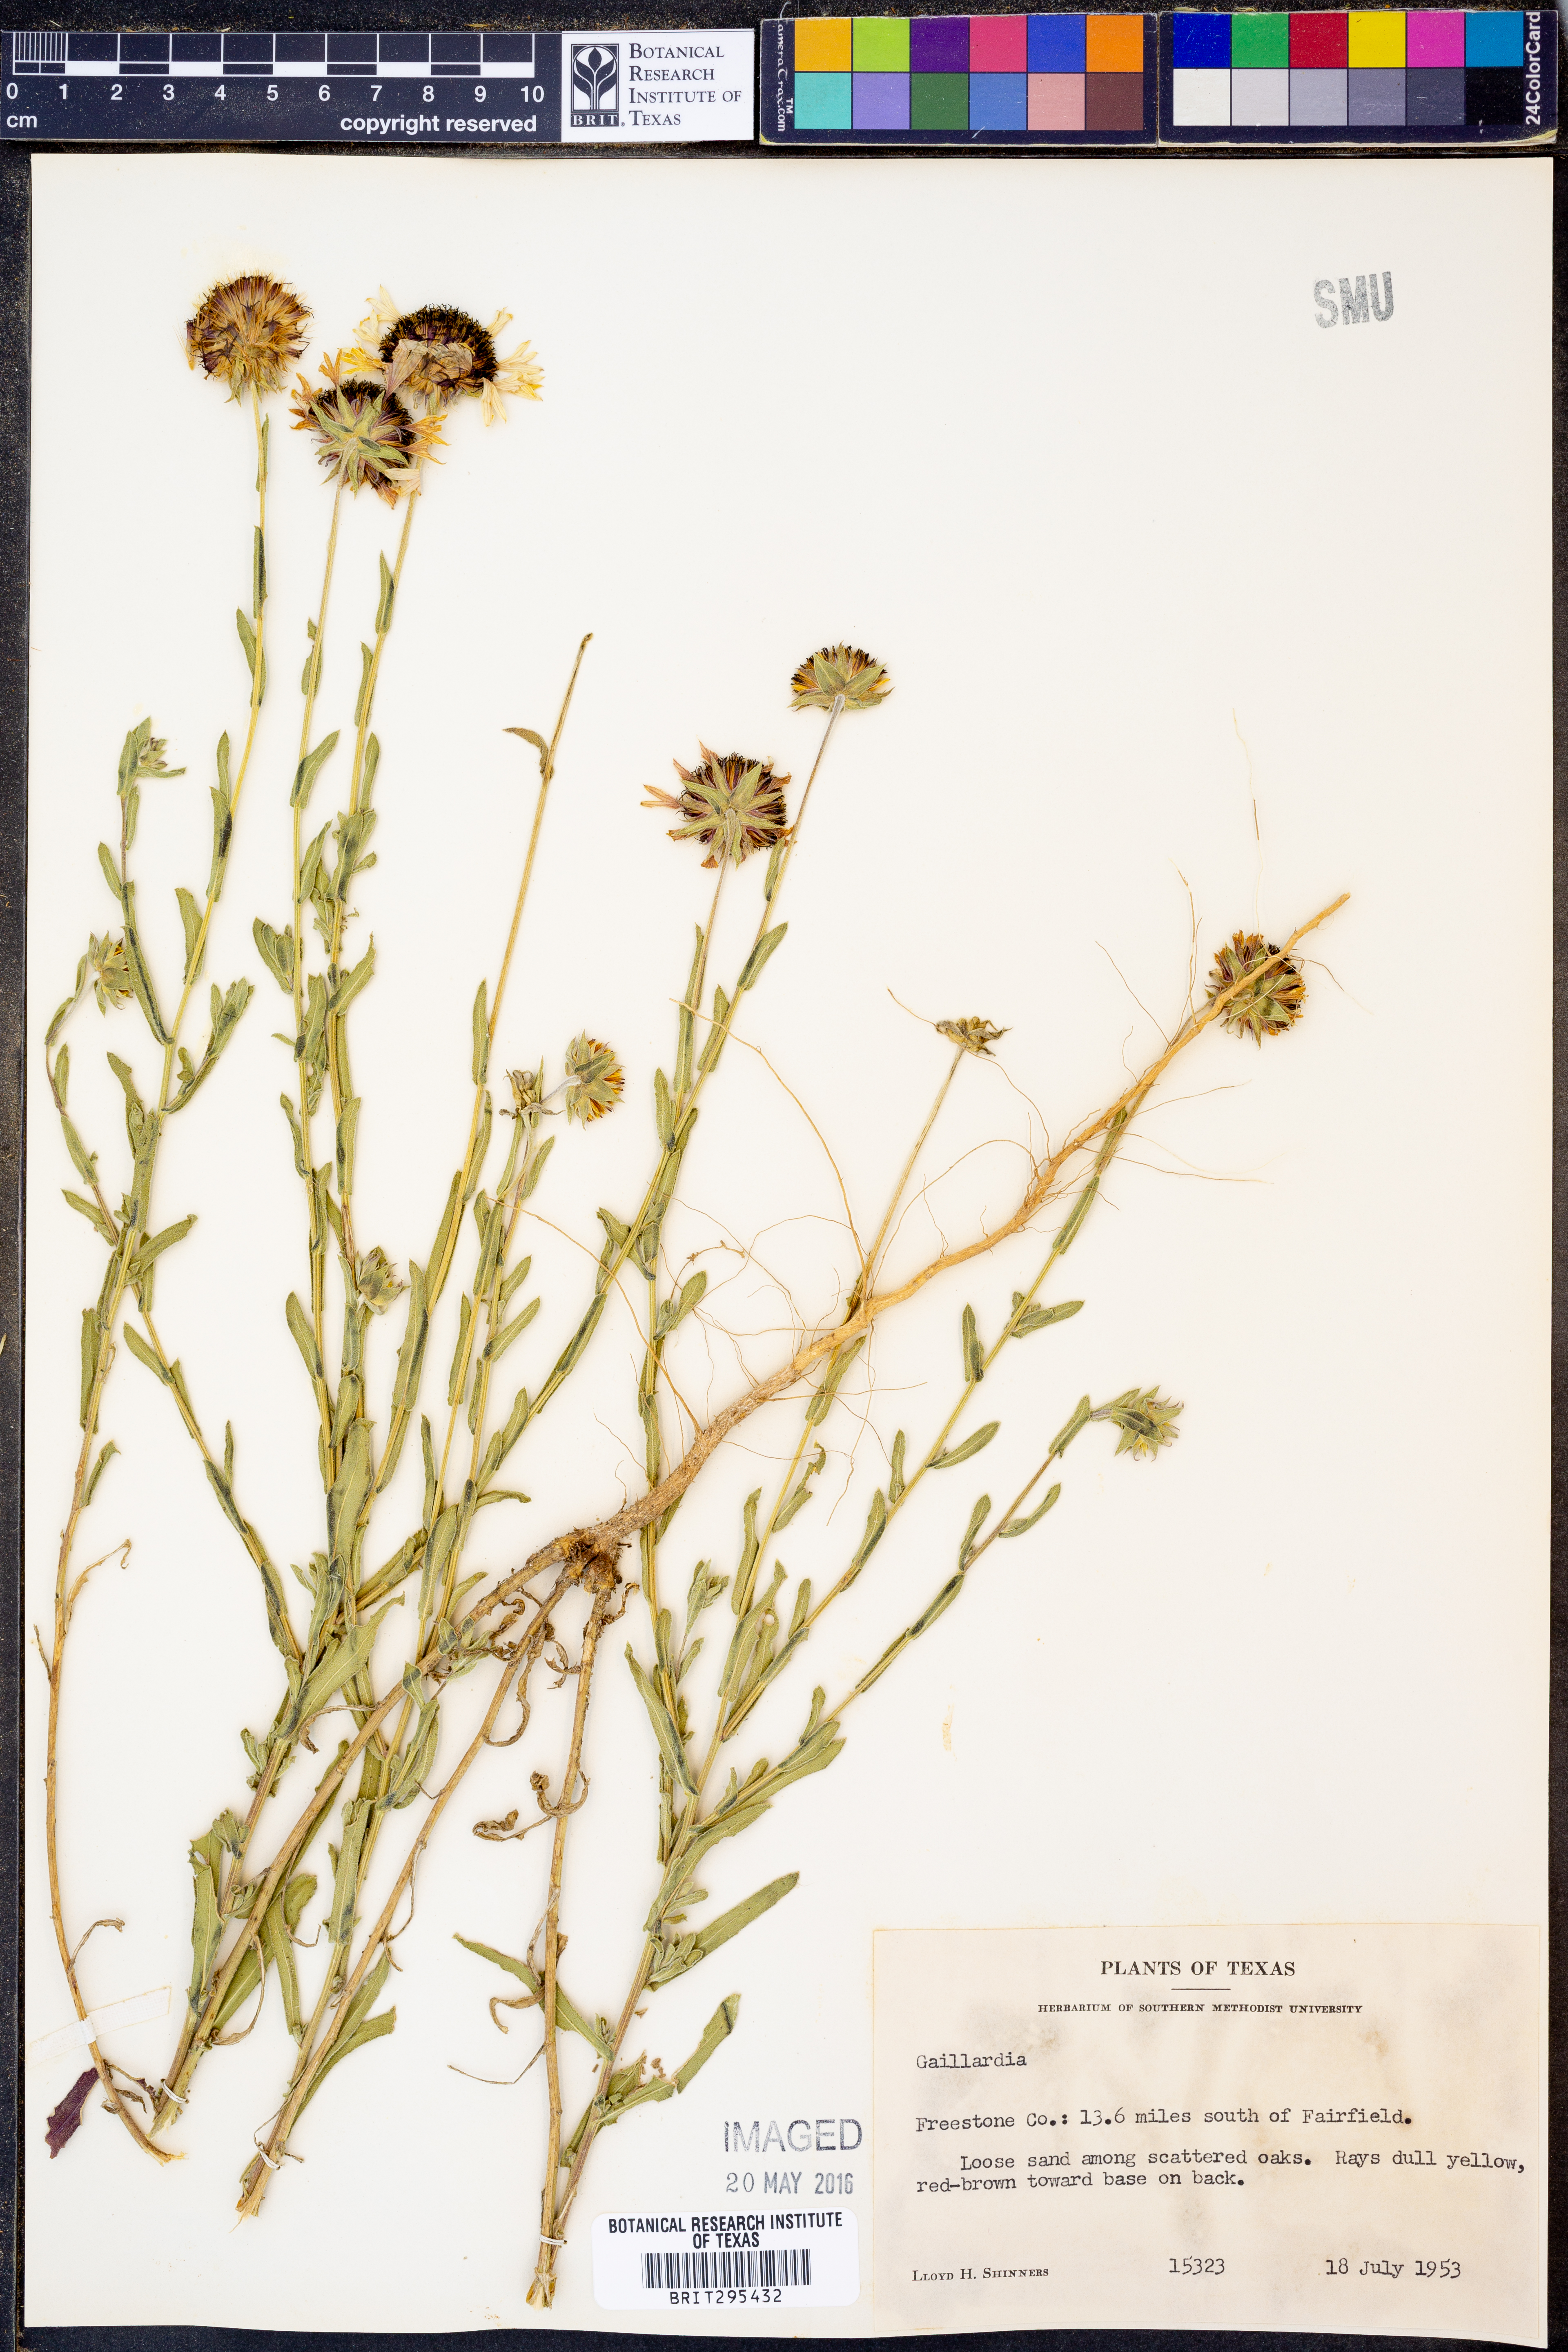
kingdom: Plantae
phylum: Tracheophyta
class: Magnoliopsida
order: Asterales
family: Asteraceae
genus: Gaillardia
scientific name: Gaillardia
